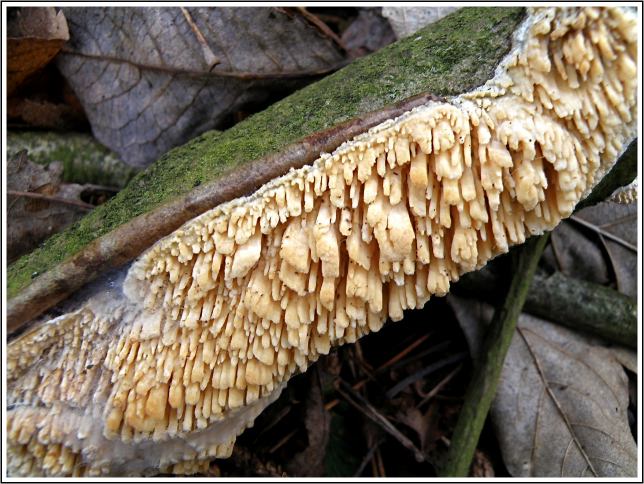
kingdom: Fungi
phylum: Basidiomycota
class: Agaricomycetes
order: Hymenochaetales
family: Schizoporaceae
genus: Xylodon
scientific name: Xylodon radula
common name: grovtandet kalkskind
